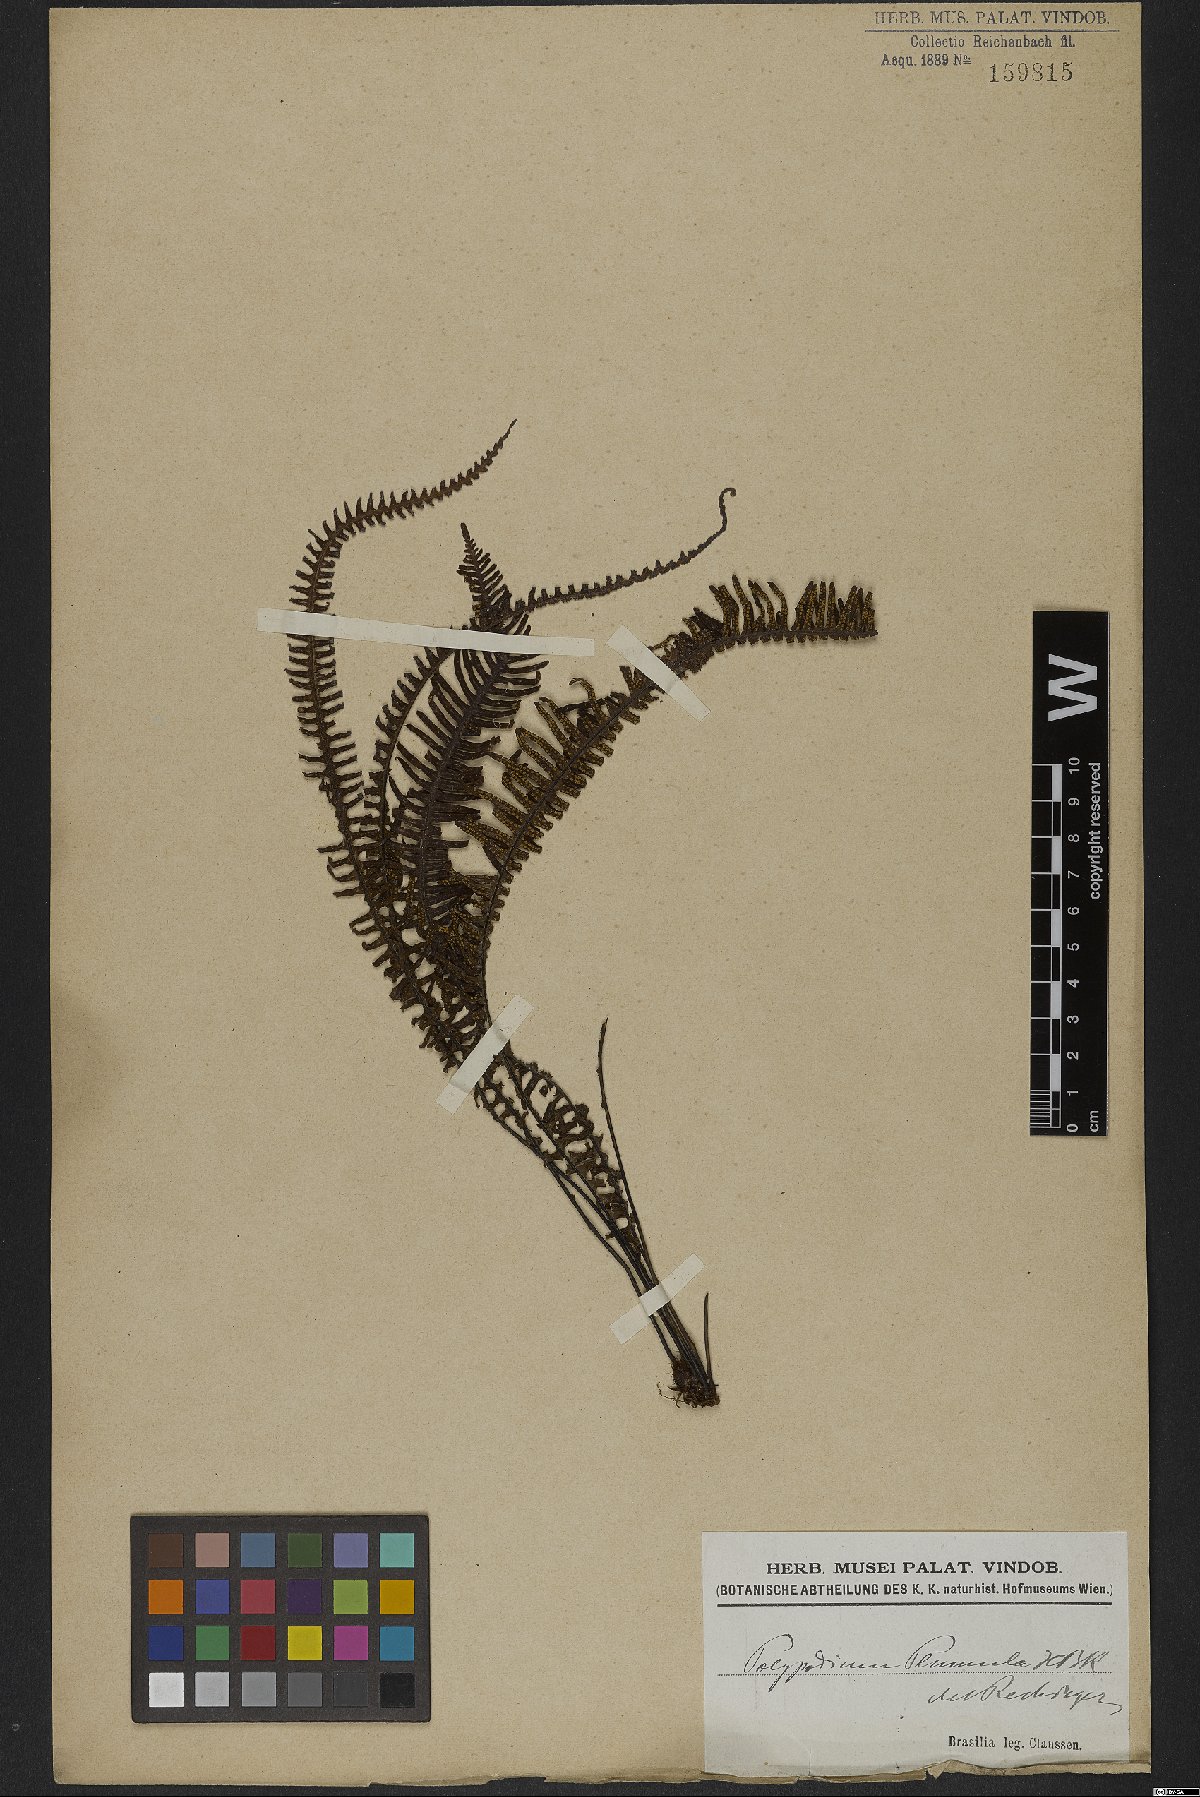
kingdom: Plantae
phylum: Tracheophyta
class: Polypodiopsida
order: Polypodiales
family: Polypodiaceae
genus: Pecluma
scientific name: Pecluma plumula
